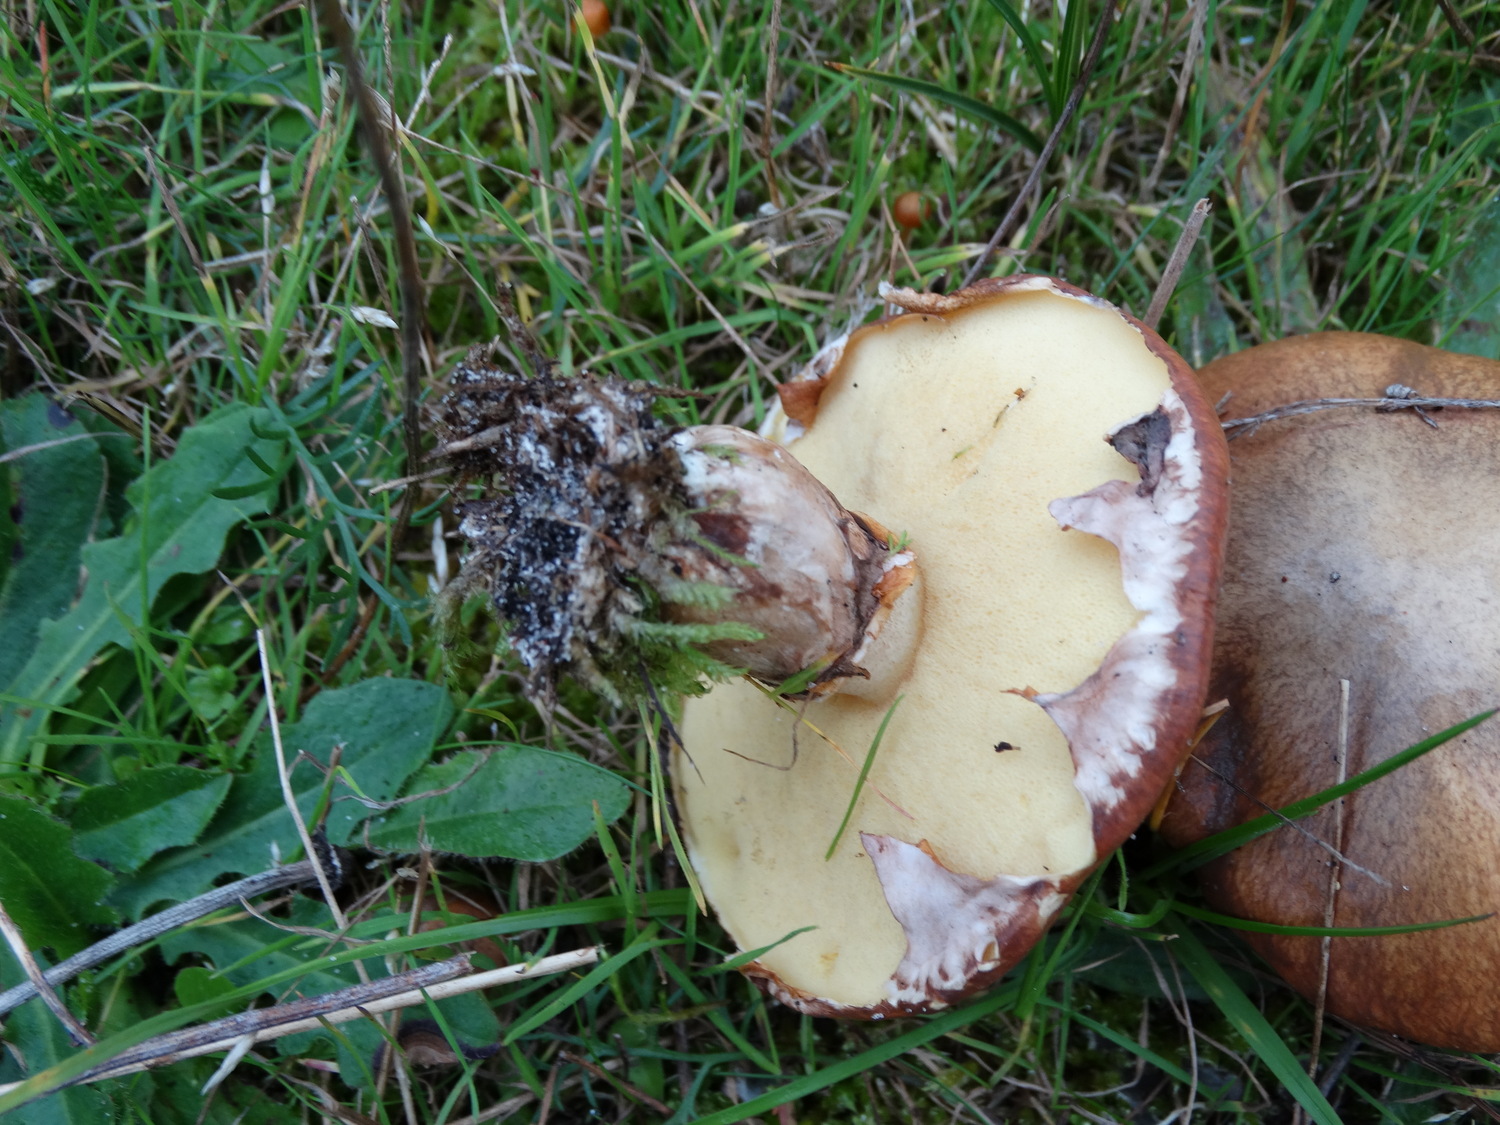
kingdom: Fungi
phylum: Basidiomycota
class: Agaricomycetes
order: Boletales
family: Suillaceae
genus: Suillus
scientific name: Suillus luteus
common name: brungul slimrørhat
